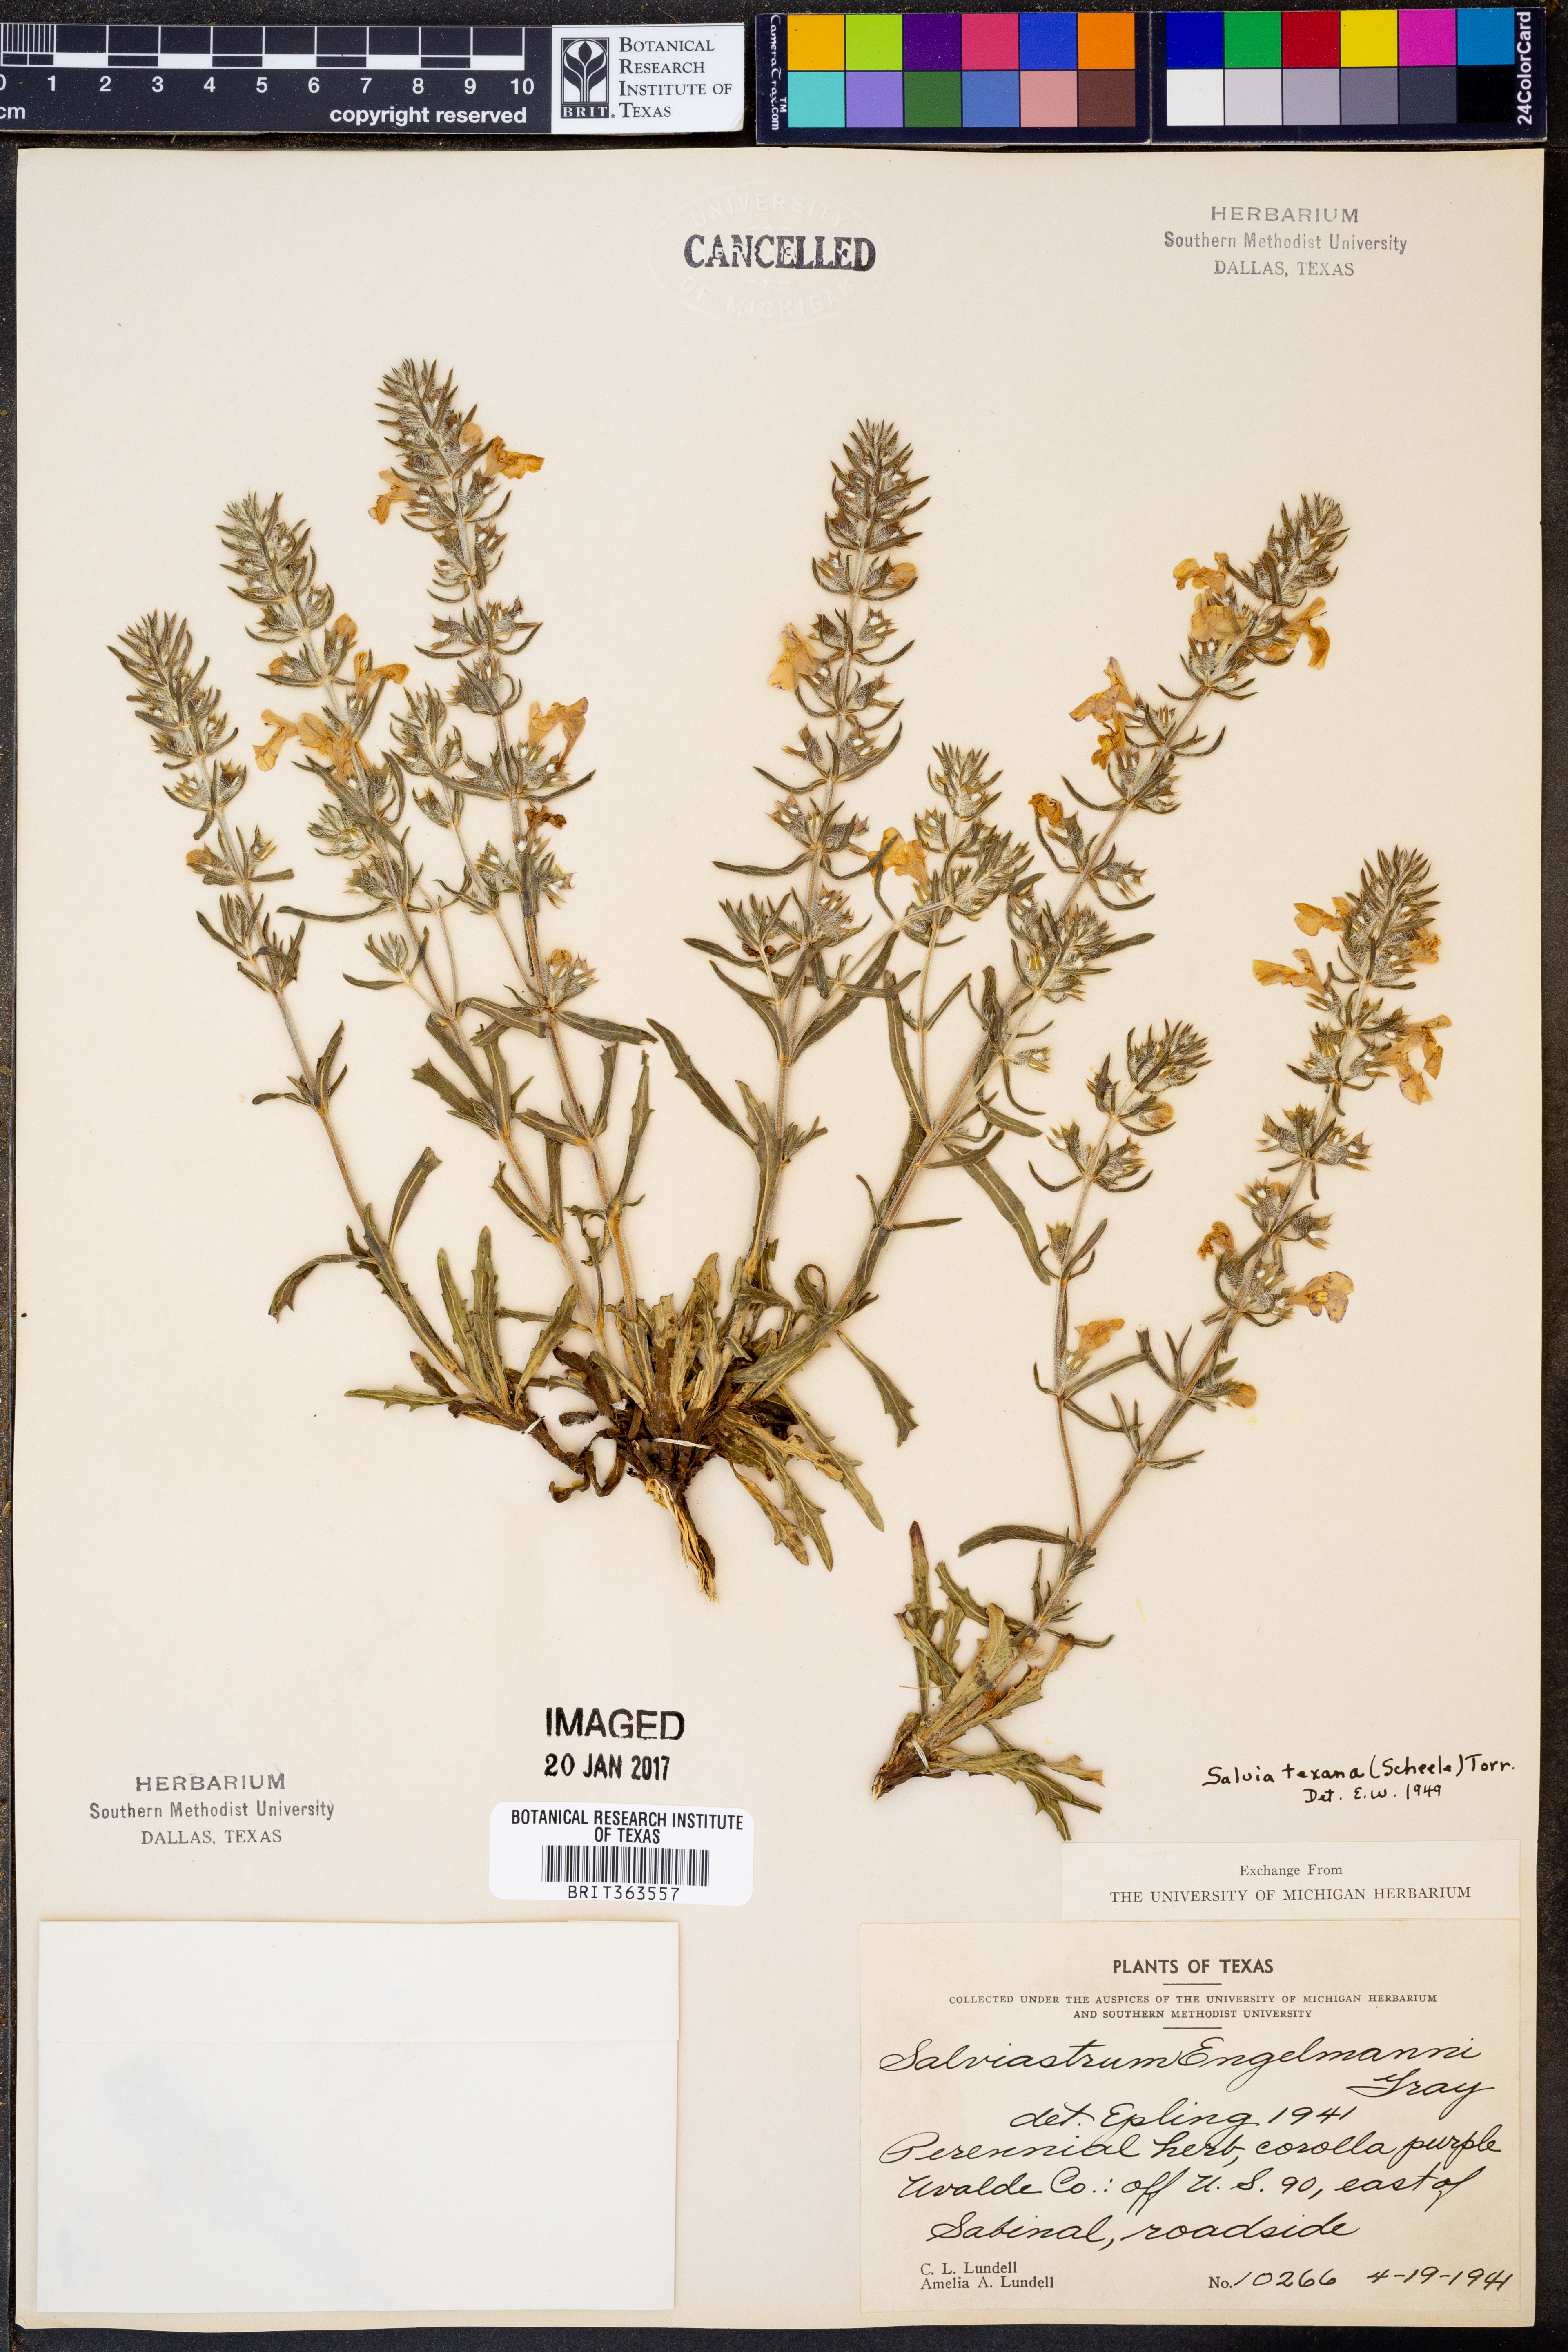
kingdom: Plantae
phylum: Tracheophyta
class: Magnoliopsida
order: Lamiales
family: Lamiaceae
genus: Salvia
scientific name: Salvia texana
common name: Texas sage
